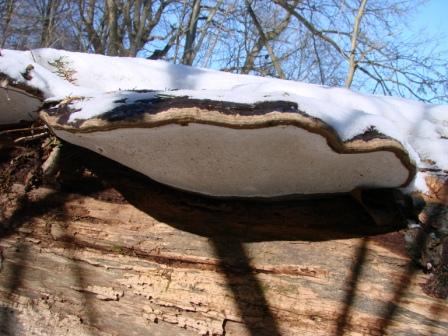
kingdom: Fungi
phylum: Basidiomycota
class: Agaricomycetes
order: Polyporales
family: Polyporaceae
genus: Ganoderma
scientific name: Ganoderma applanatum
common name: flad lakporesvamp
